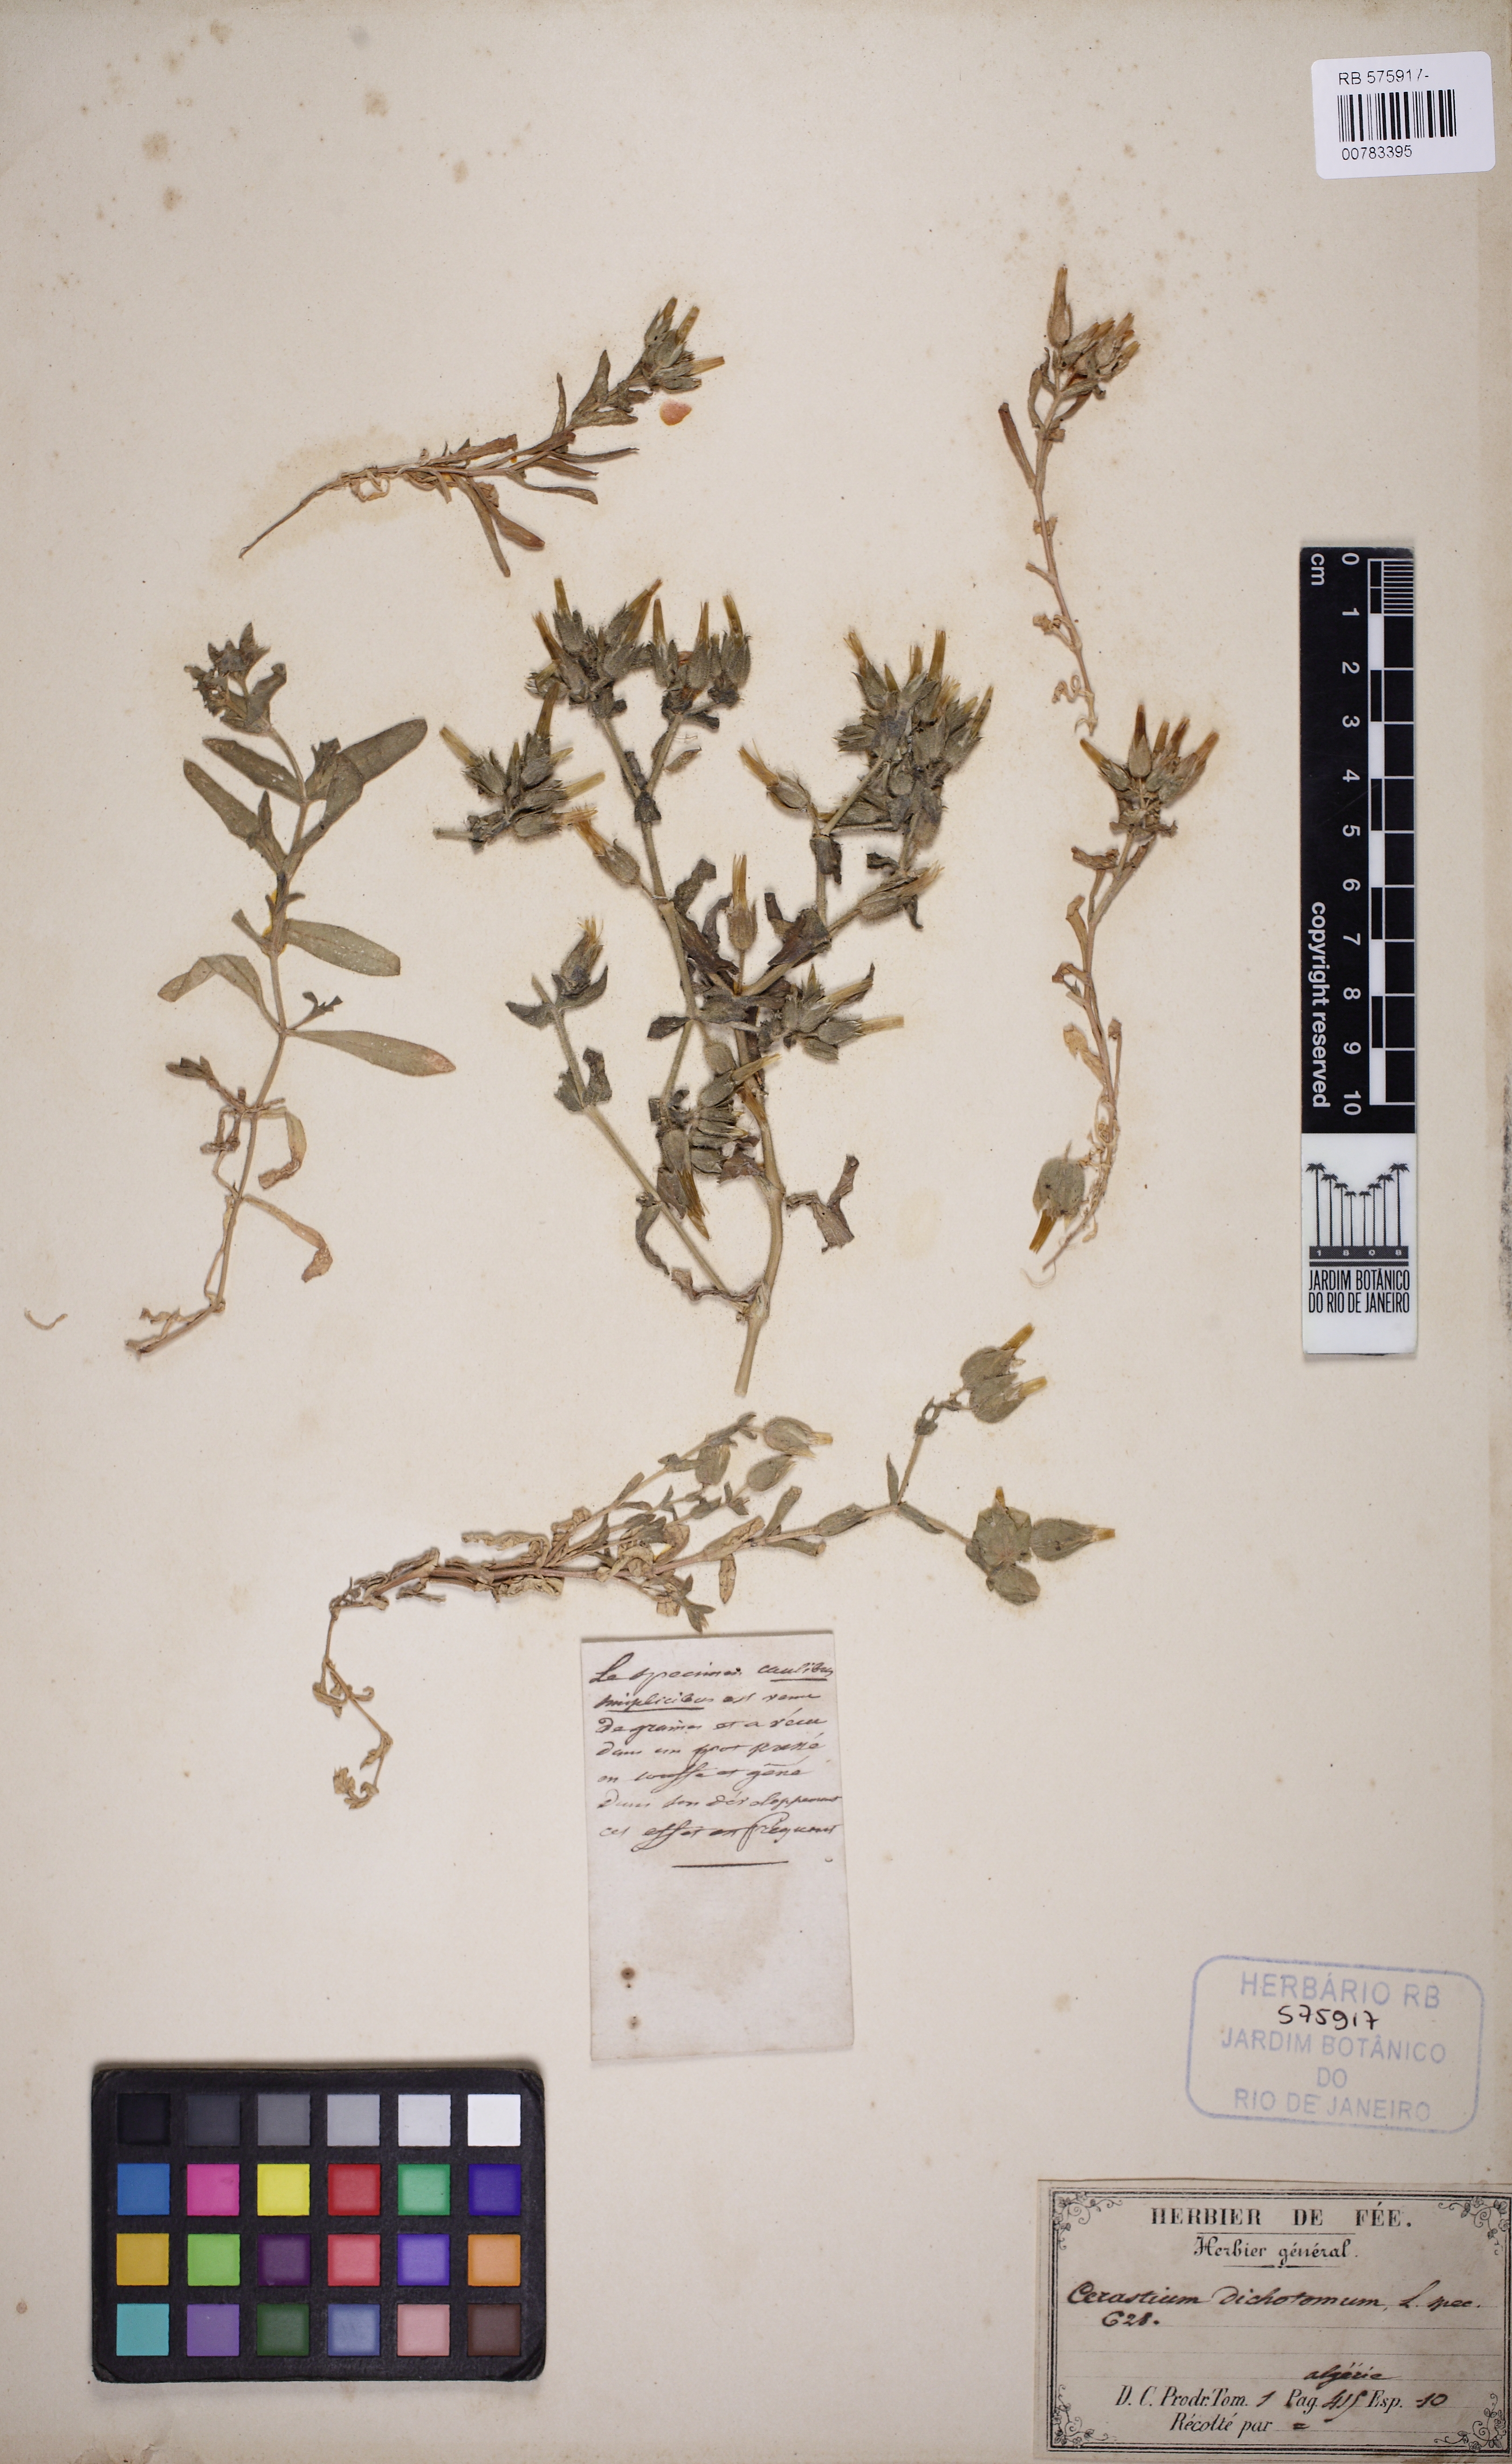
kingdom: Plantae
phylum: Tracheophyta
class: Magnoliopsida
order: Caryophyllales
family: Caryophyllaceae
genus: Cerastium
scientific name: Cerastium dichotomum
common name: Forked chickweed
